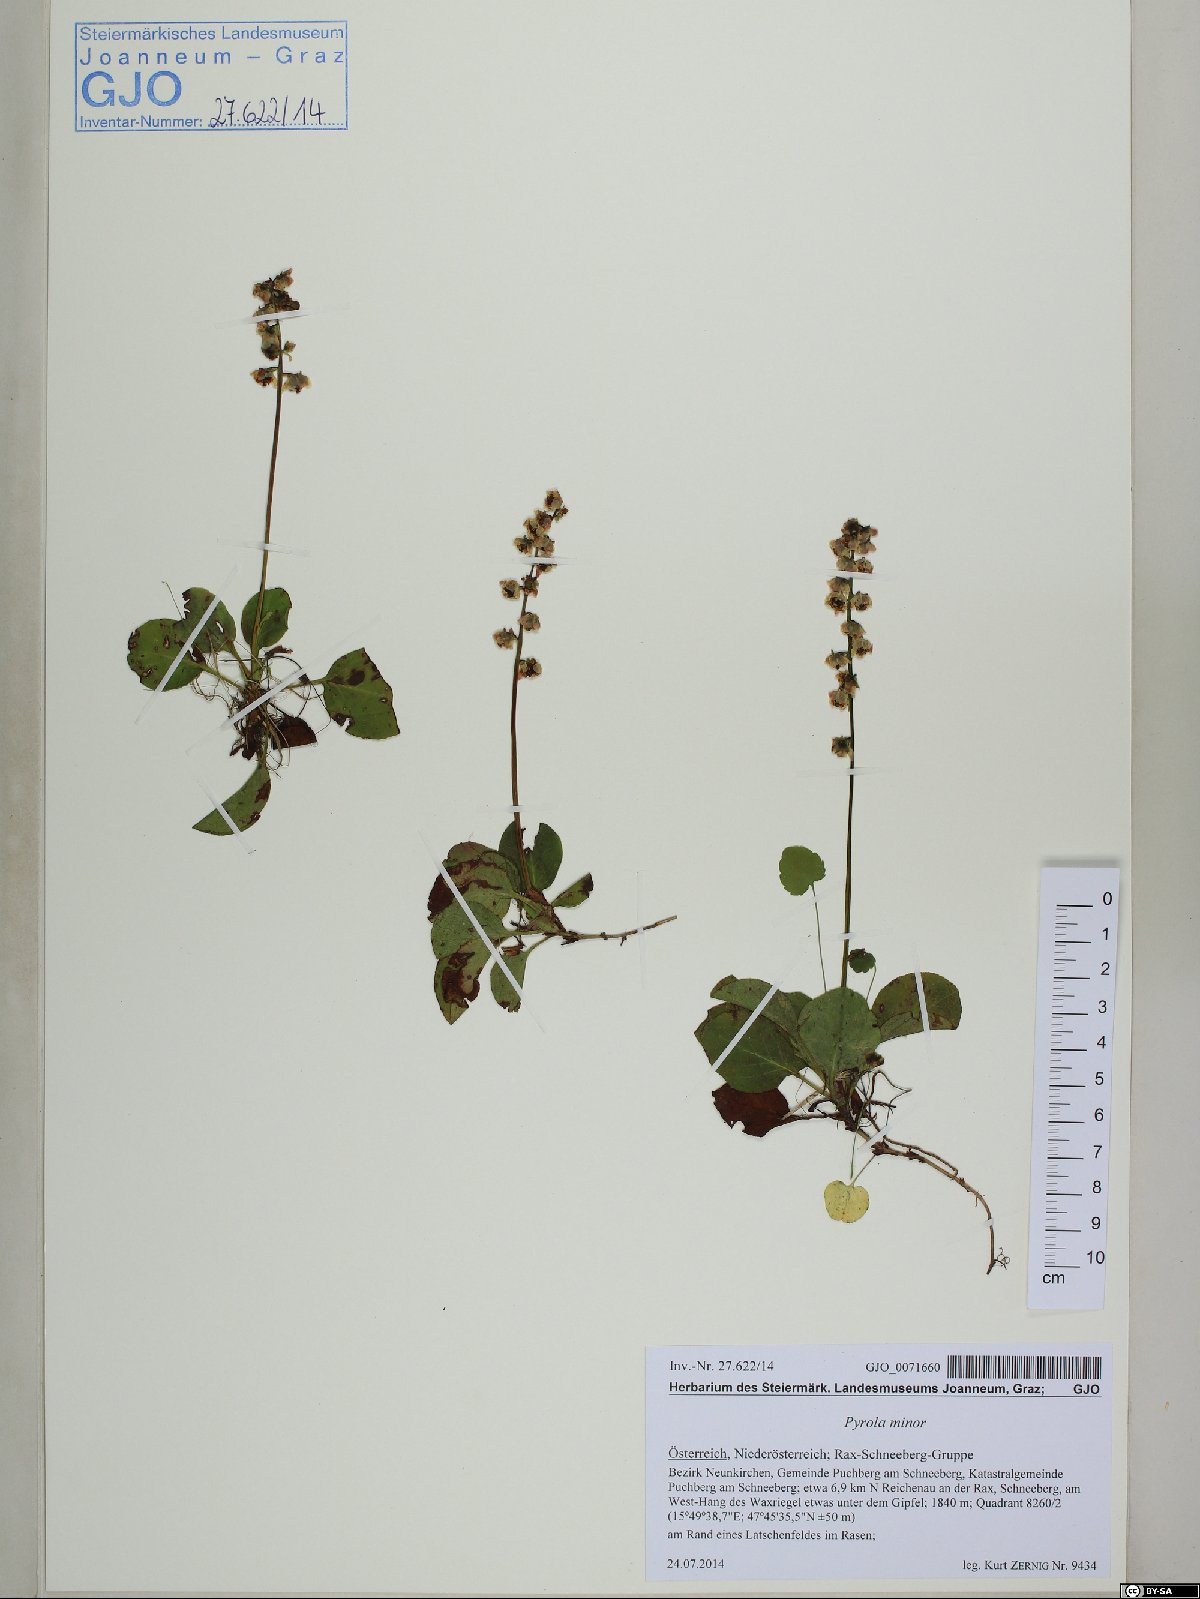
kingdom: Plantae
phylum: Tracheophyta
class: Magnoliopsida
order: Ericales
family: Ericaceae
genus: Pyrola
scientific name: Pyrola minor
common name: Common wintergreen
